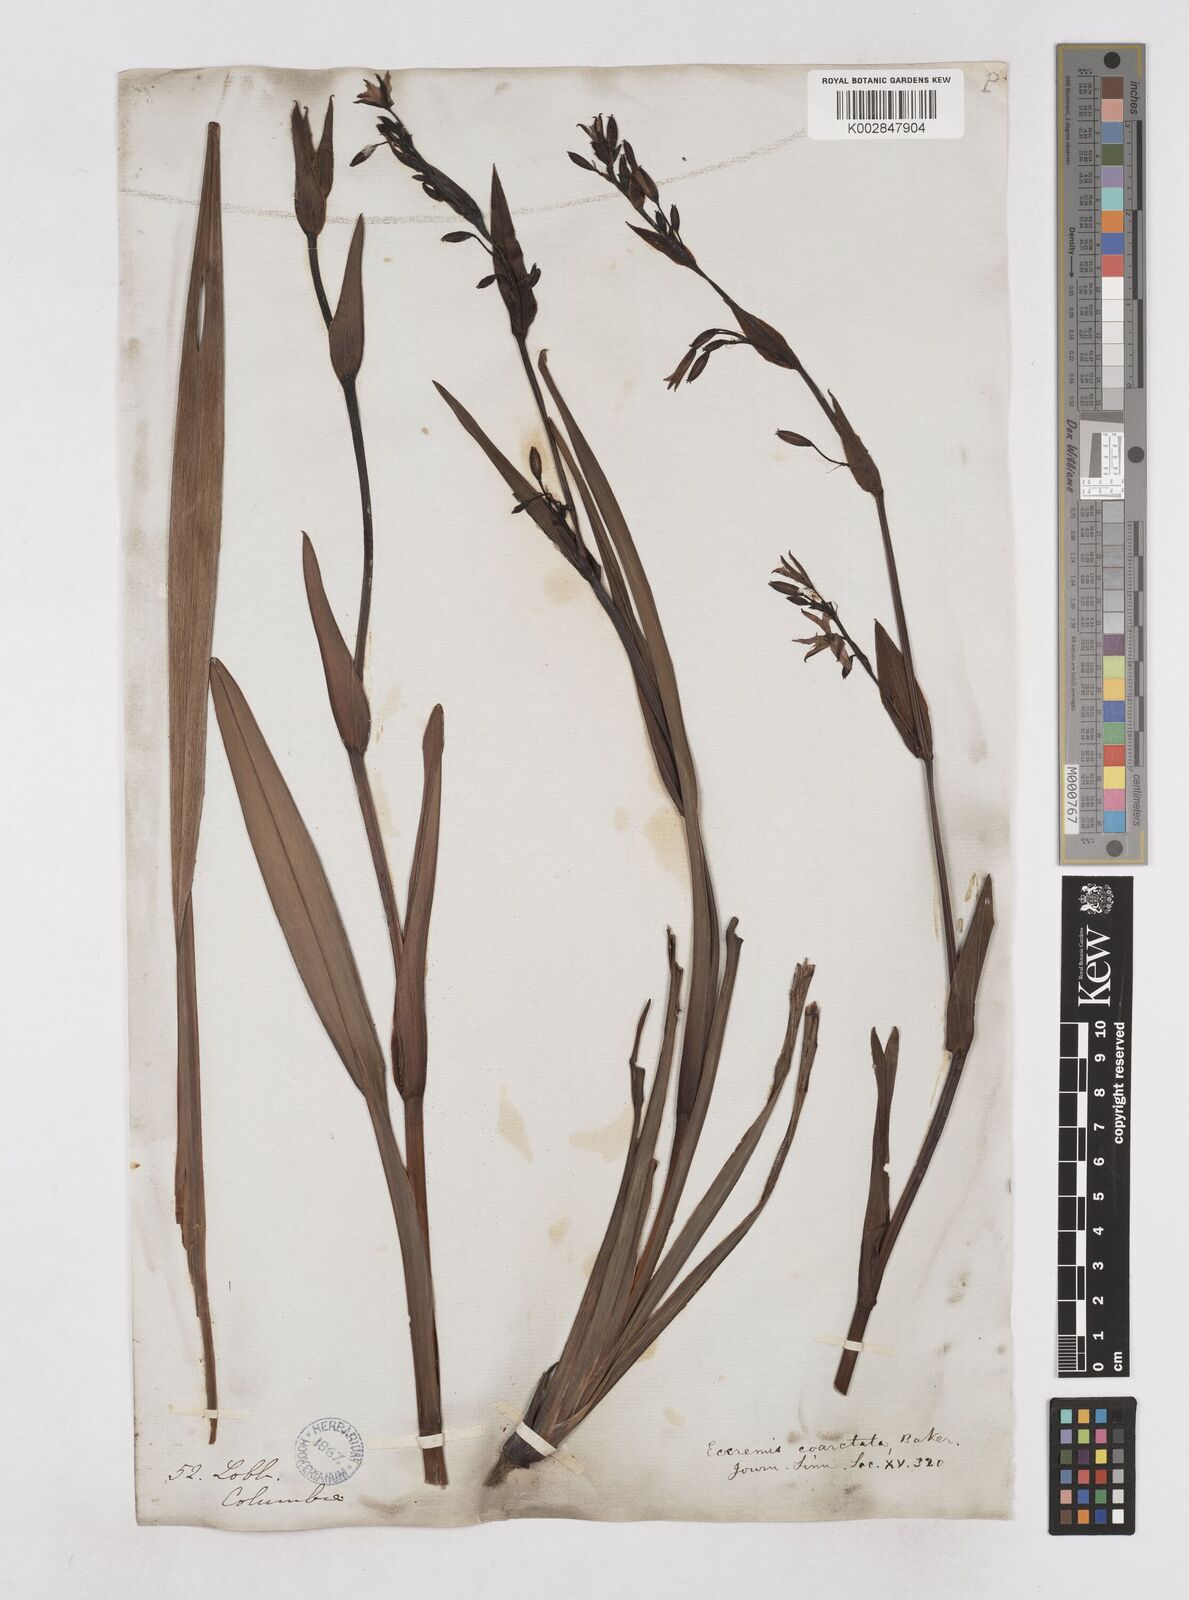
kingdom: Plantae
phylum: Tracheophyta
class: Liliopsida
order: Asparagales
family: Asphodelaceae
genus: Excremis
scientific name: Excremis coarctata
